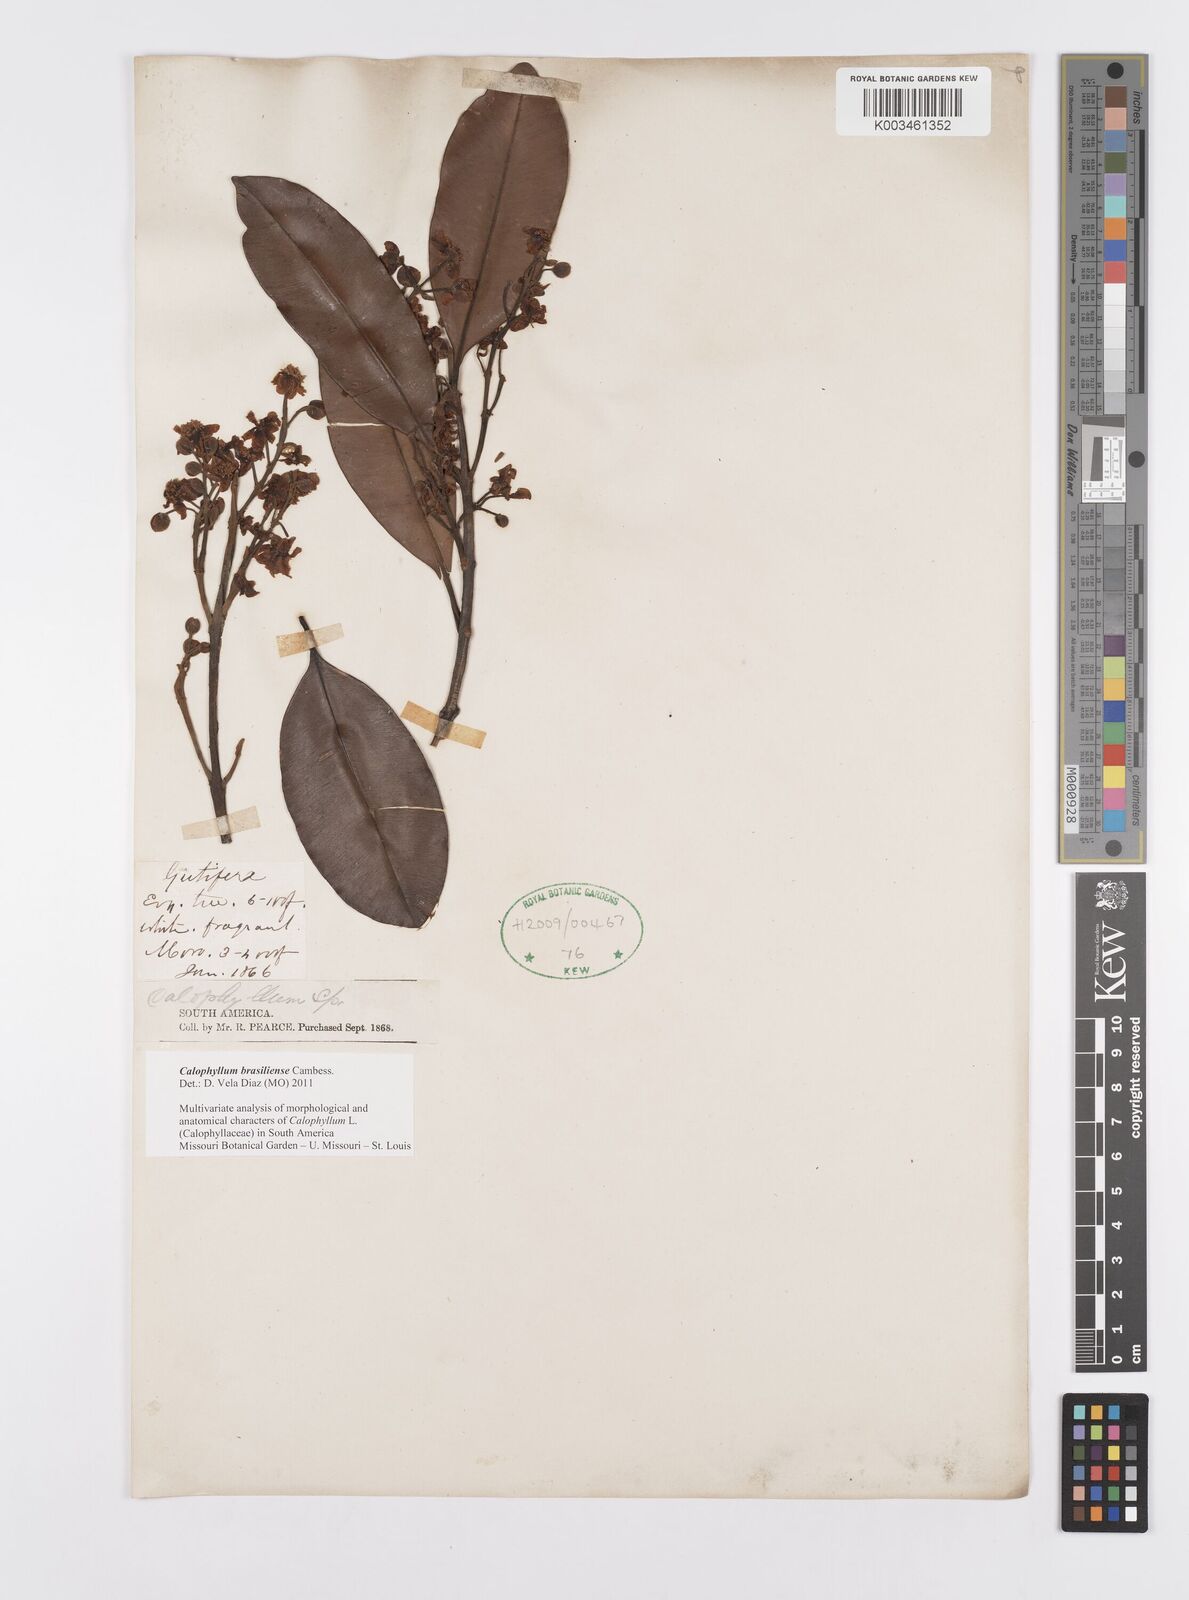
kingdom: Plantae
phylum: Tracheophyta
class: Magnoliopsida
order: Malpighiales
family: Calophyllaceae
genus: Calophyllum
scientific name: Calophyllum brasiliense
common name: Santa maria
